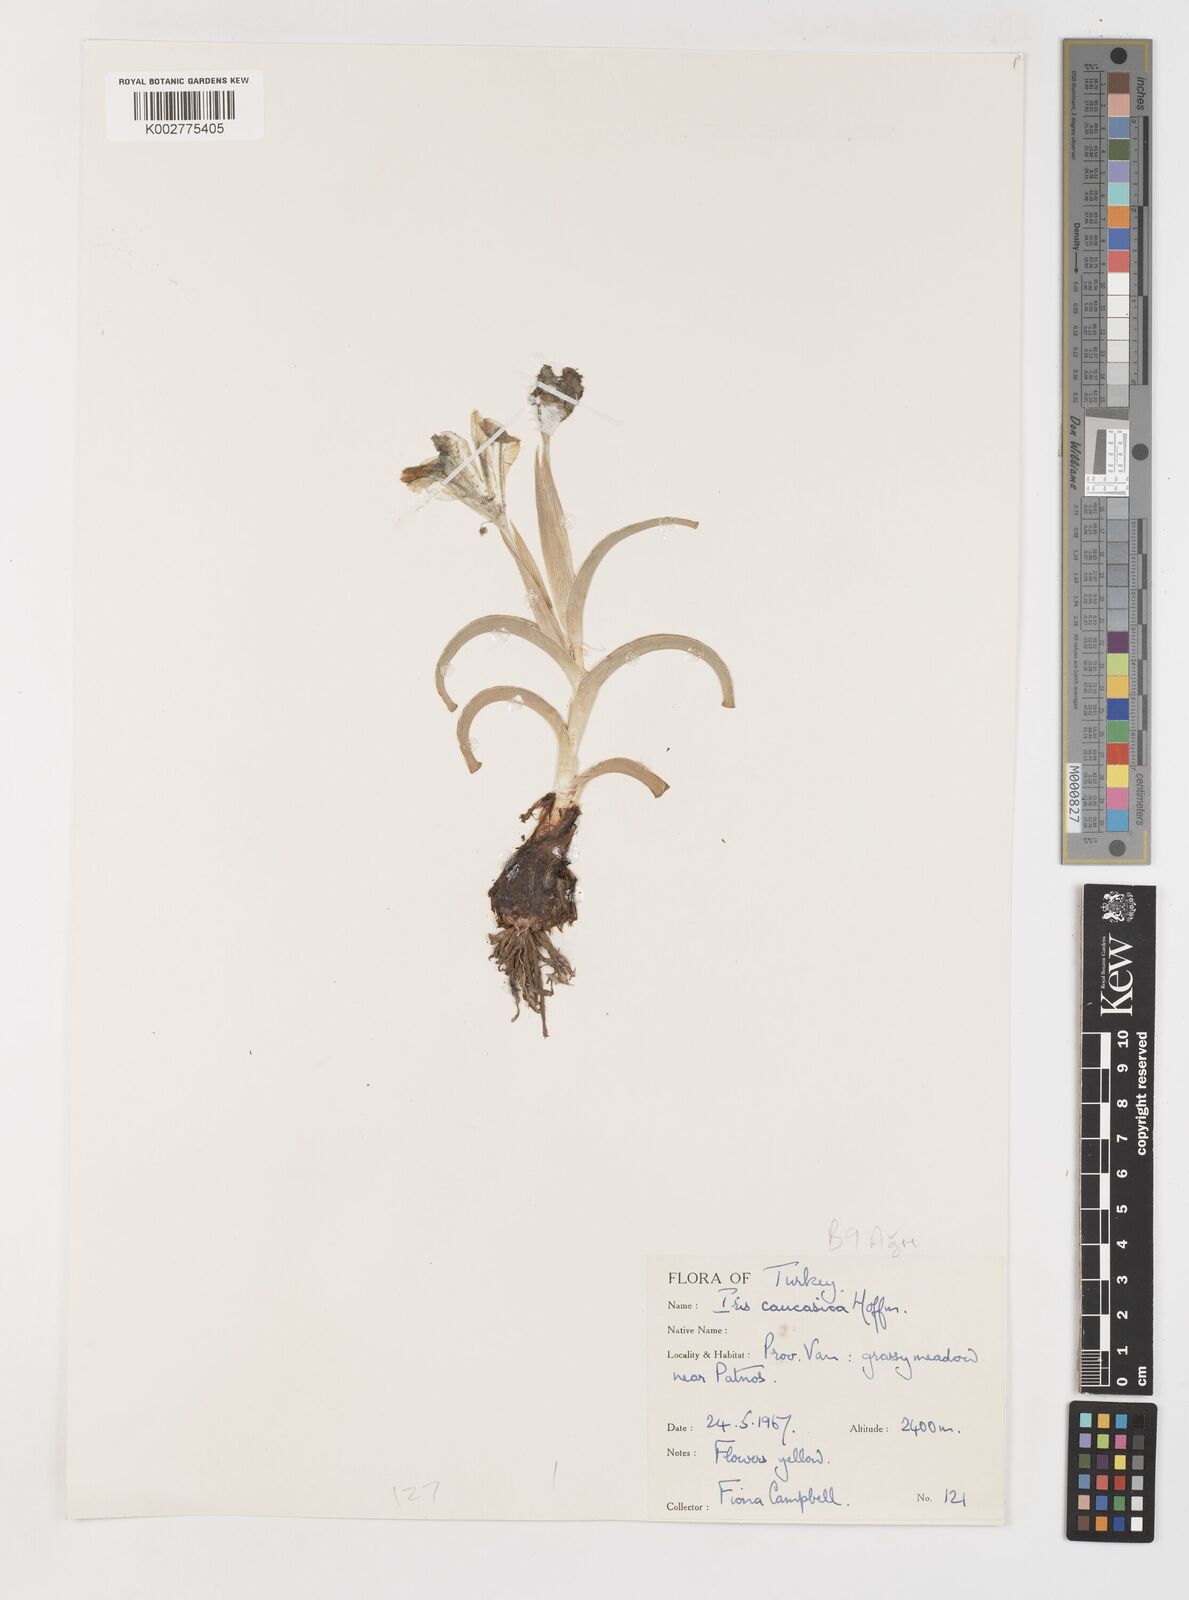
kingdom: Plantae
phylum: Tracheophyta
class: Liliopsida
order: Asparagales
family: Iridaceae
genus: Iris
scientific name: Iris caucasica
